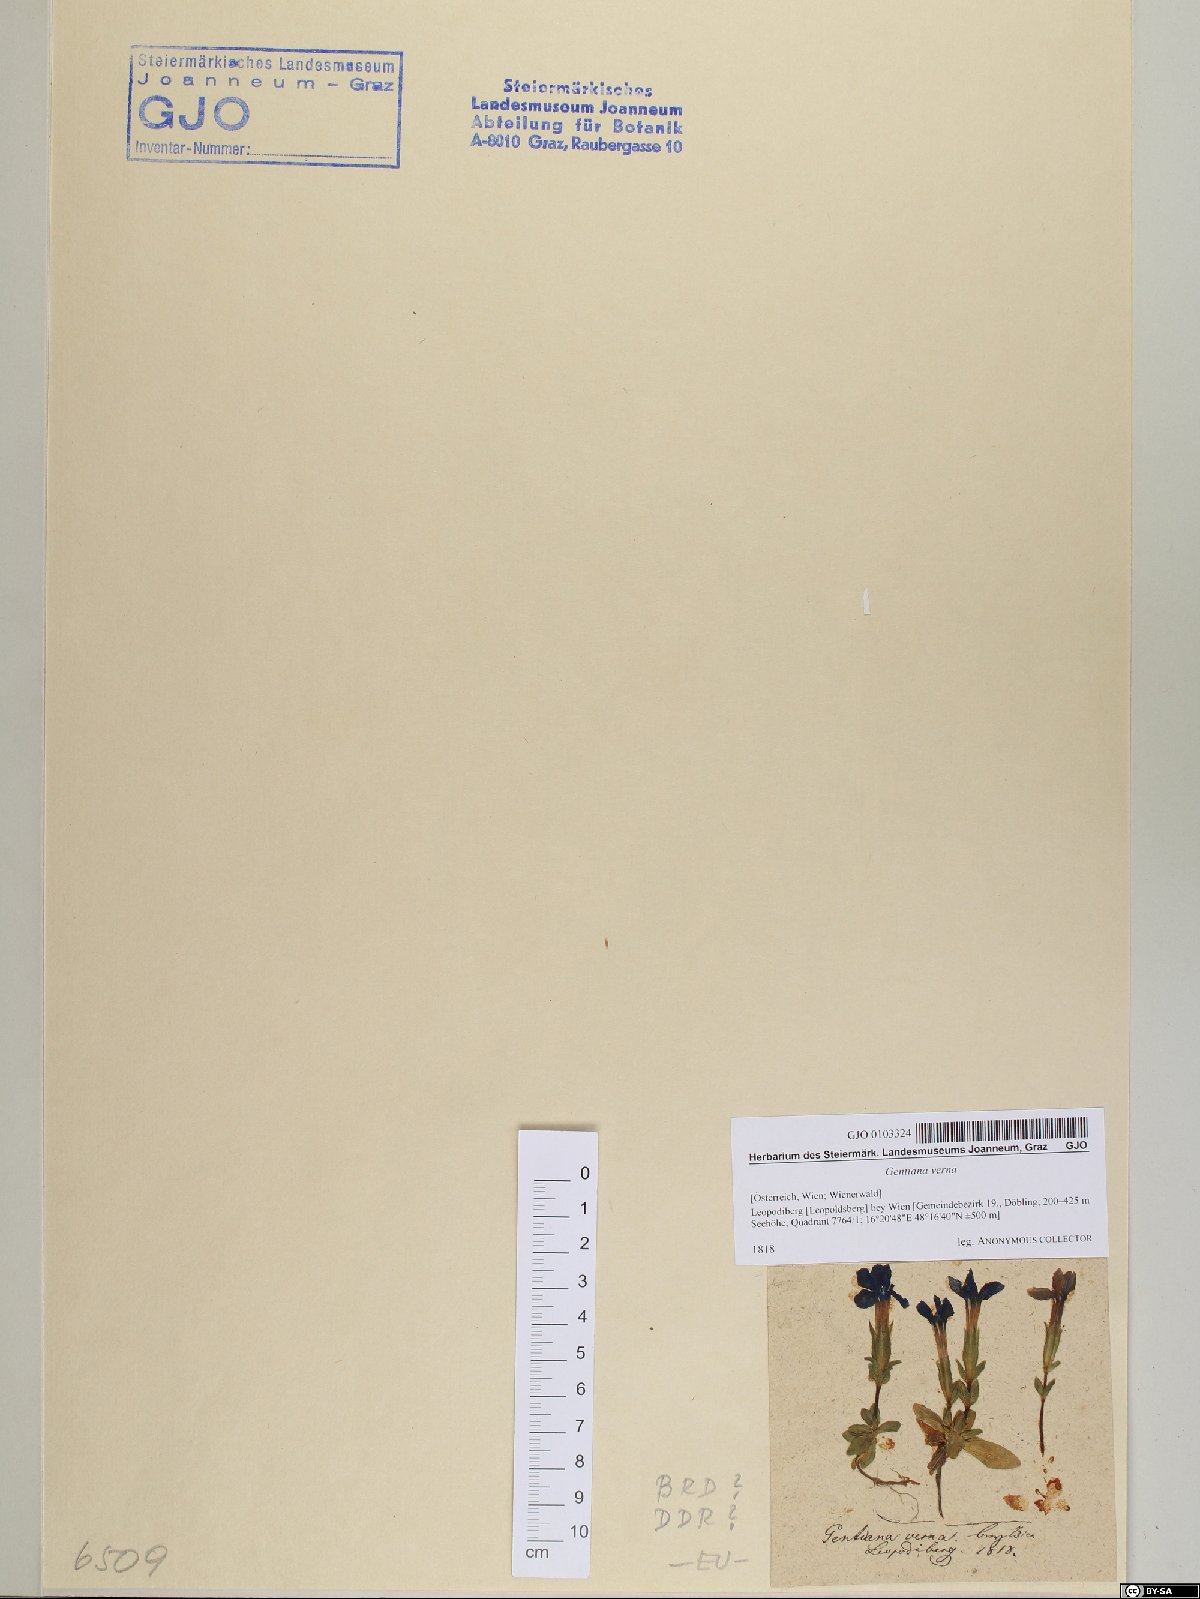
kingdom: Plantae
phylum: Tracheophyta
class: Magnoliopsida
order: Gentianales
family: Gentianaceae
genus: Gentiana
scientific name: Gentiana verna
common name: Spring gentian
